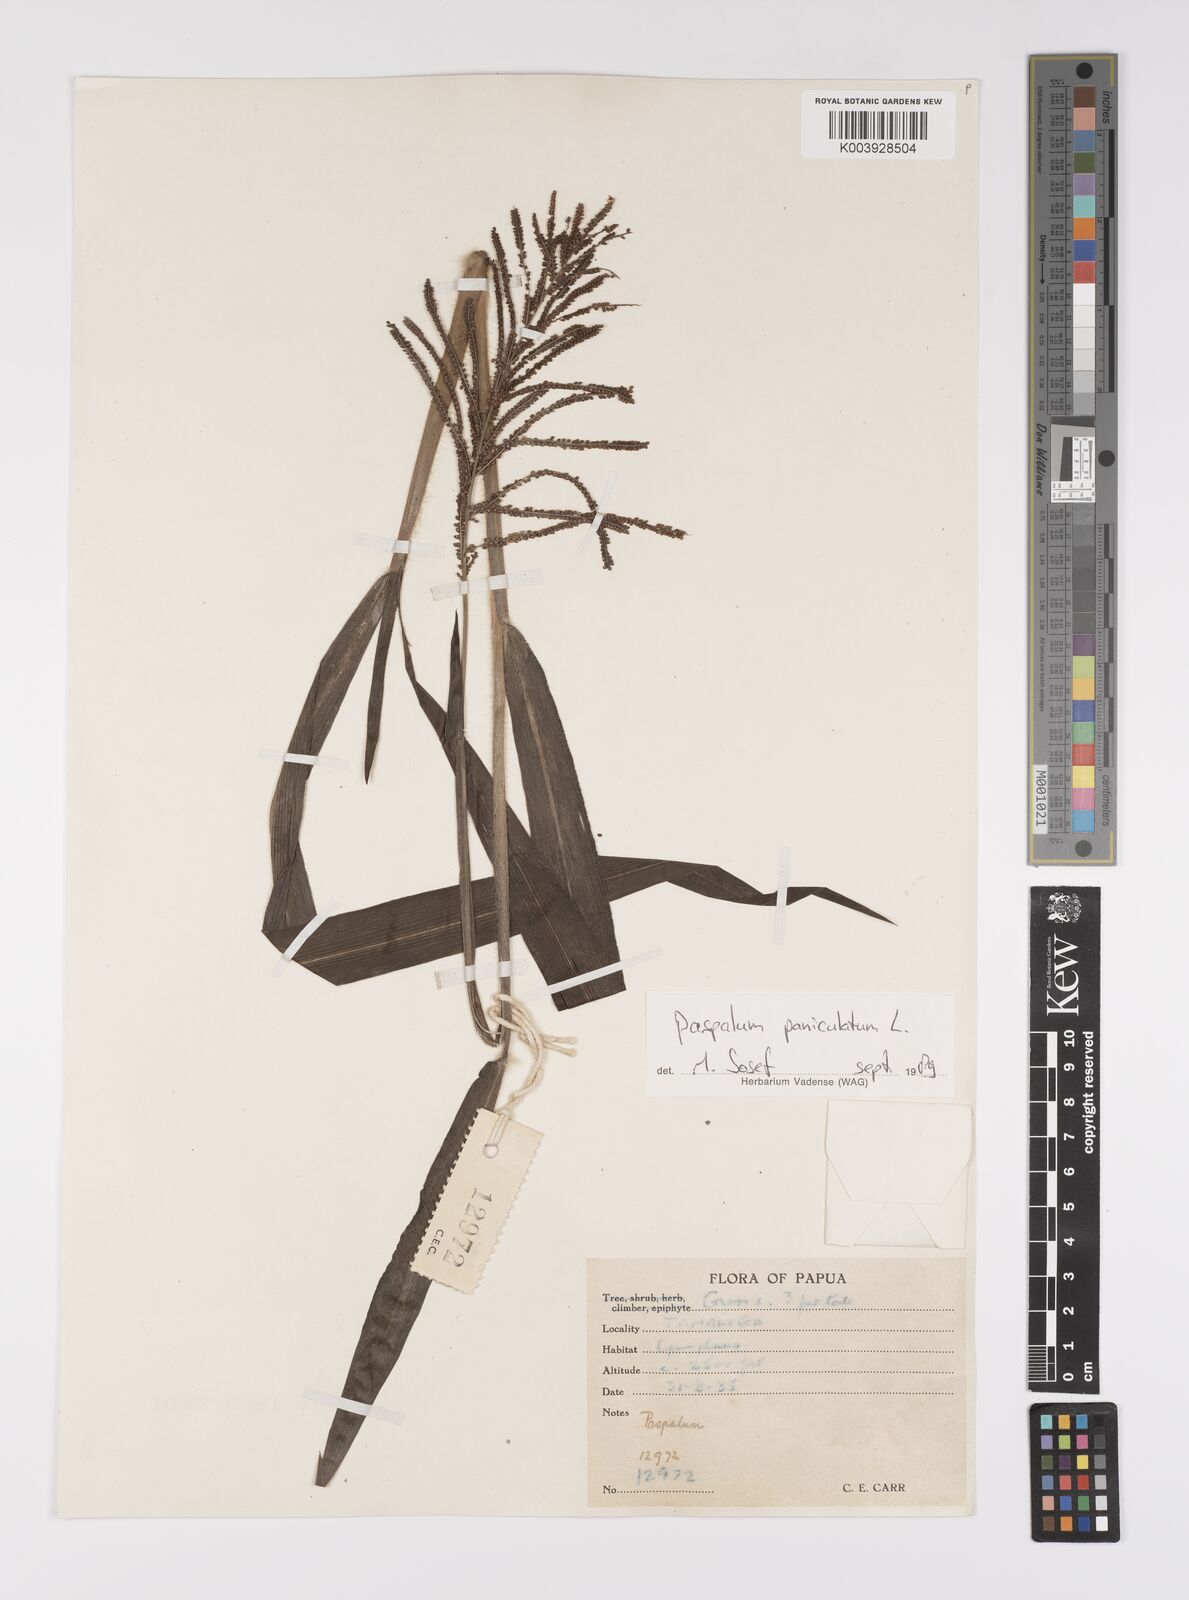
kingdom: Plantae
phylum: Tracheophyta
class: Liliopsida
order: Poales
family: Poaceae
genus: Paspalum
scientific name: Paspalum paniculatum
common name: Arrocillo
